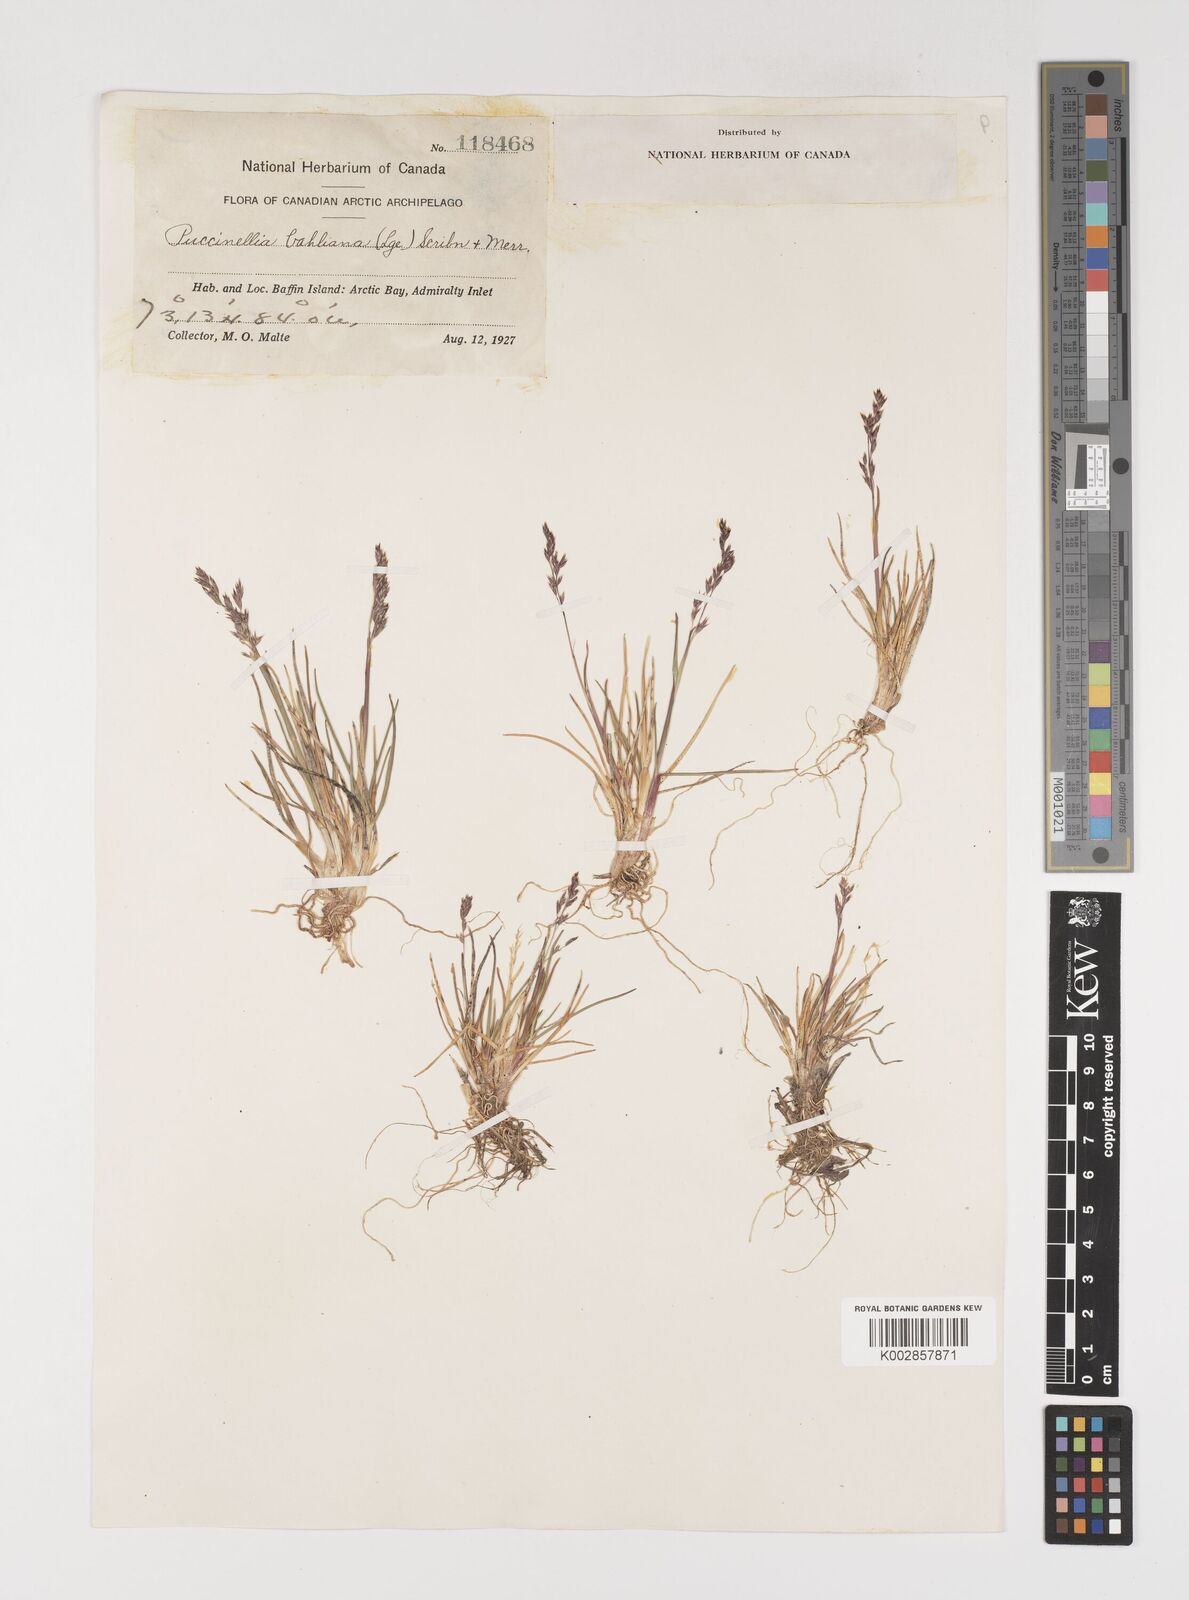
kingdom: Plantae
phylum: Tracheophyta
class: Liliopsida
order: Poales
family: Poaceae
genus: Puccinellia
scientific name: Puccinellia vahliana
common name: Vahl's alkaligrass
